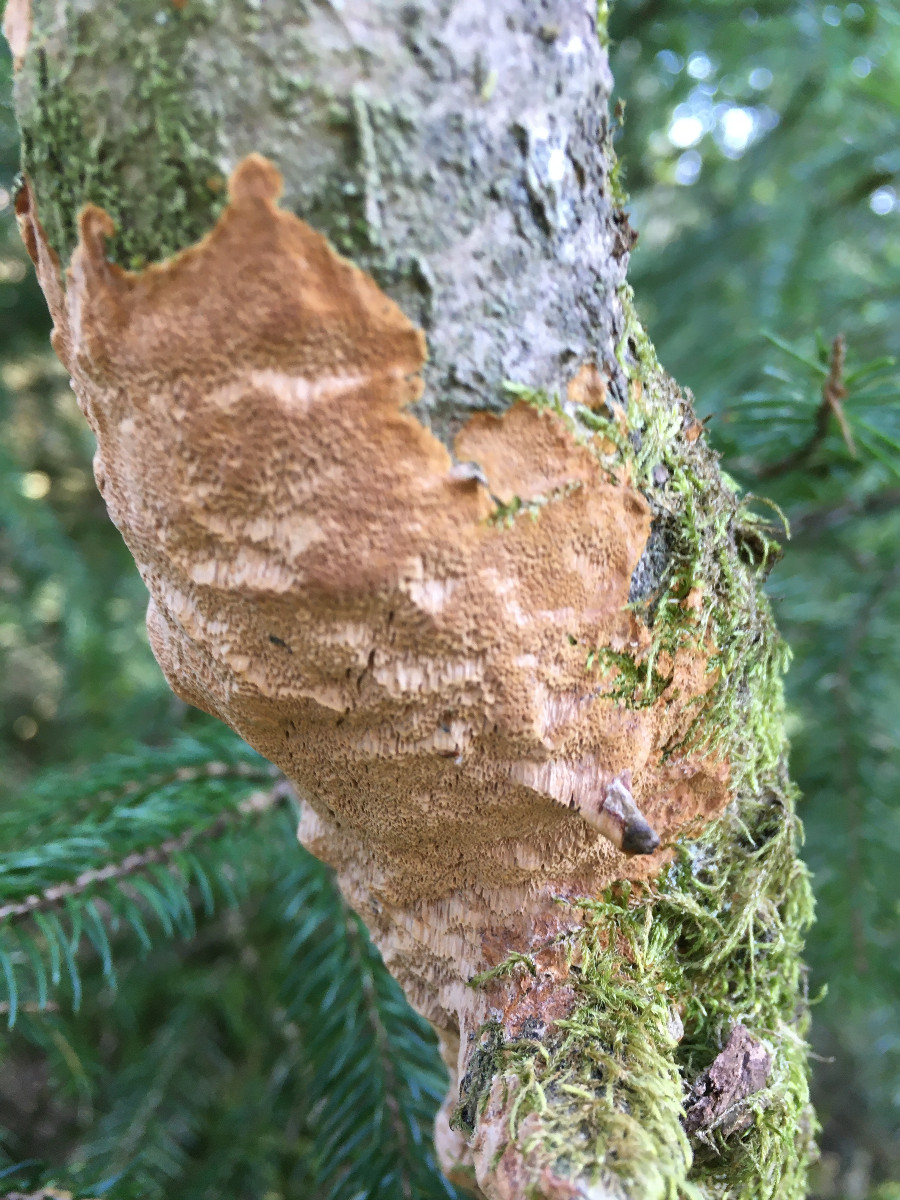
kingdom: Fungi
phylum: Basidiomycota
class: Agaricomycetes
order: Hymenochaetales
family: Hymenochaetaceae
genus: Fuscoporia
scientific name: Fuscoporia ferrea
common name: skorpe-ildporesvamp
